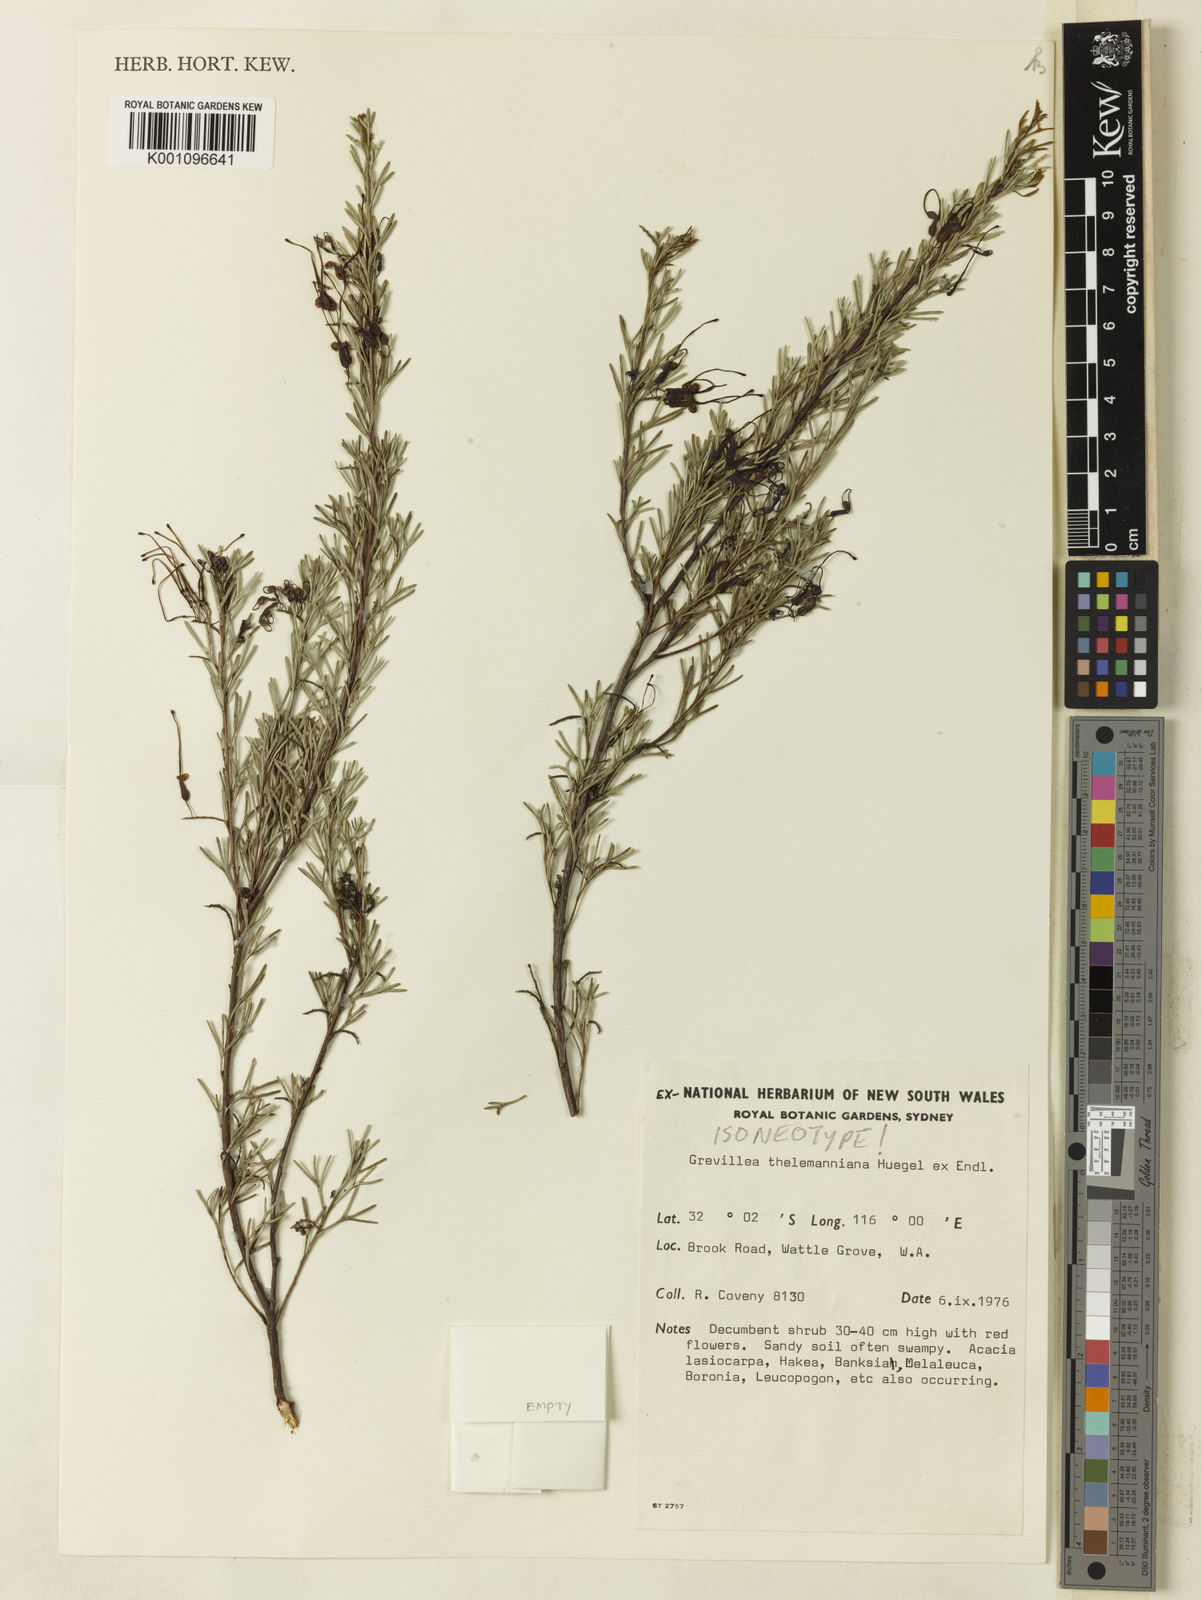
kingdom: Plantae
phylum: Tracheophyta
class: Magnoliopsida
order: Proteales
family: Proteaceae
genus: Grevillea
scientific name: Grevillea
